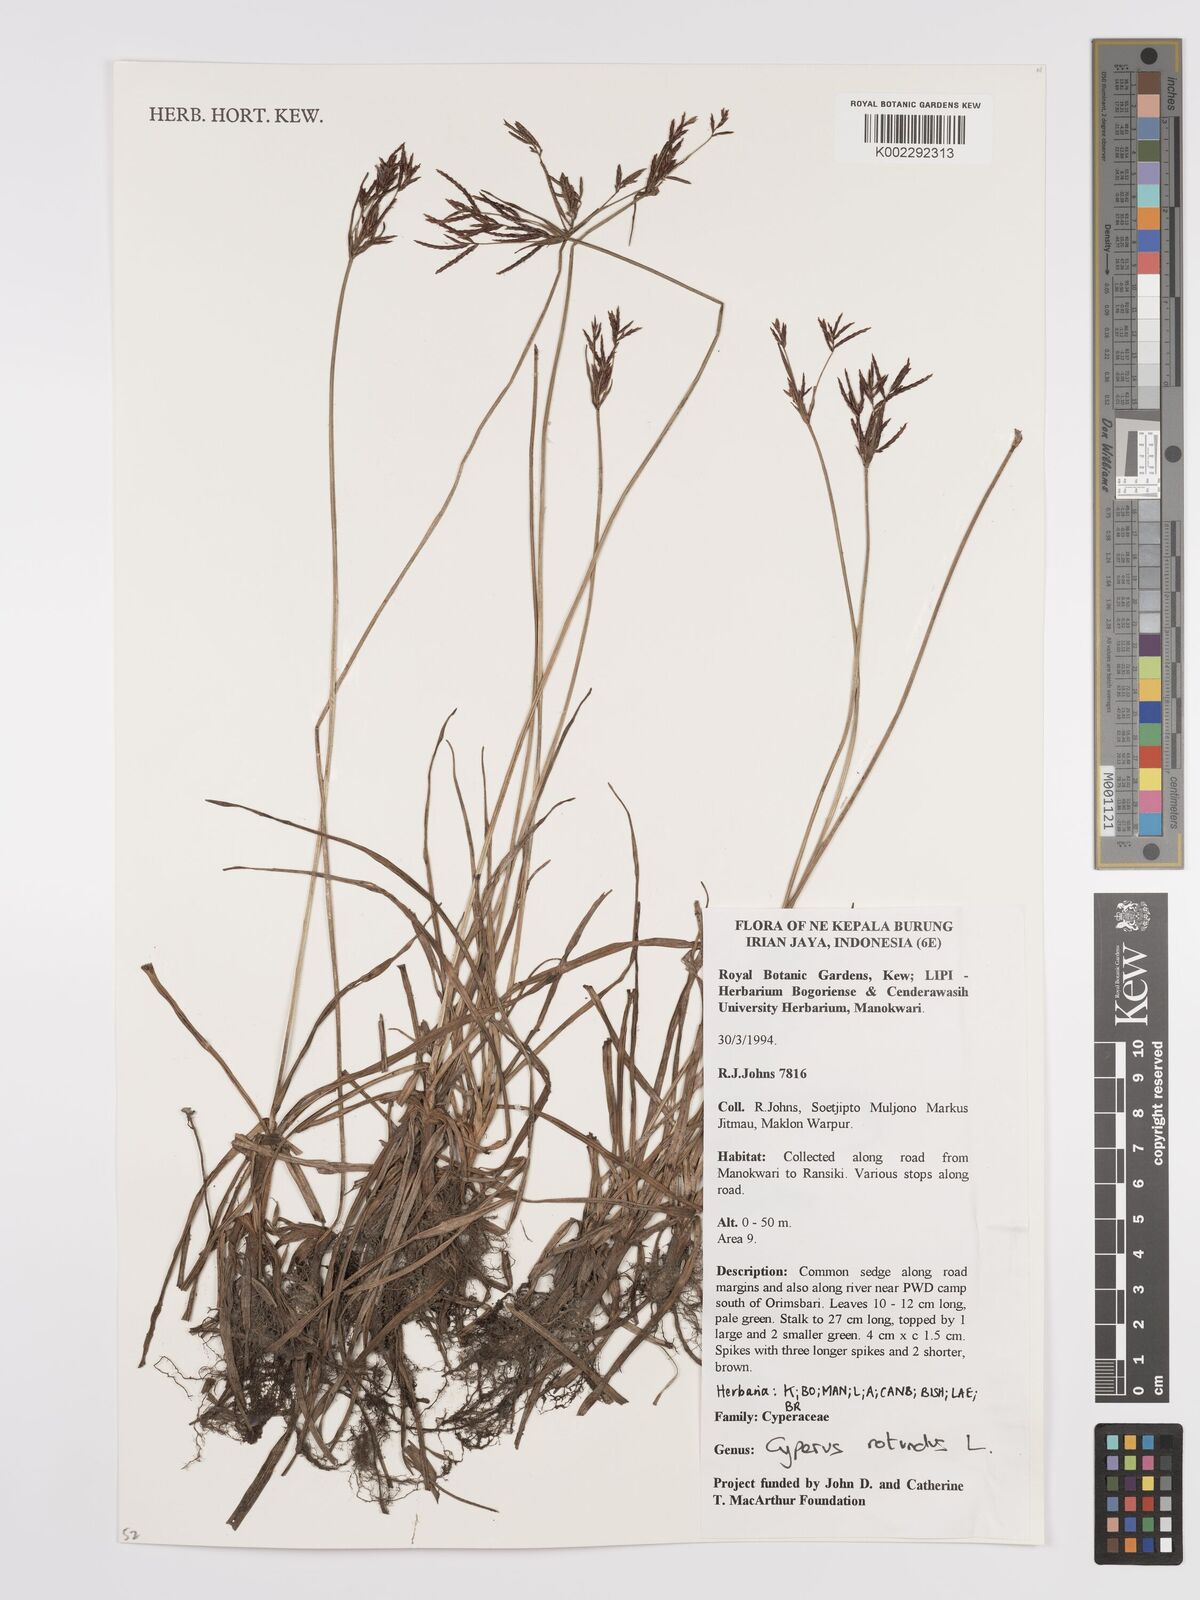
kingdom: Plantae
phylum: Tracheophyta
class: Liliopsida
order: Poales
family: Cyperaceae
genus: Cyperus
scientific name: Cyperus rotundus
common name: Nutgrass
